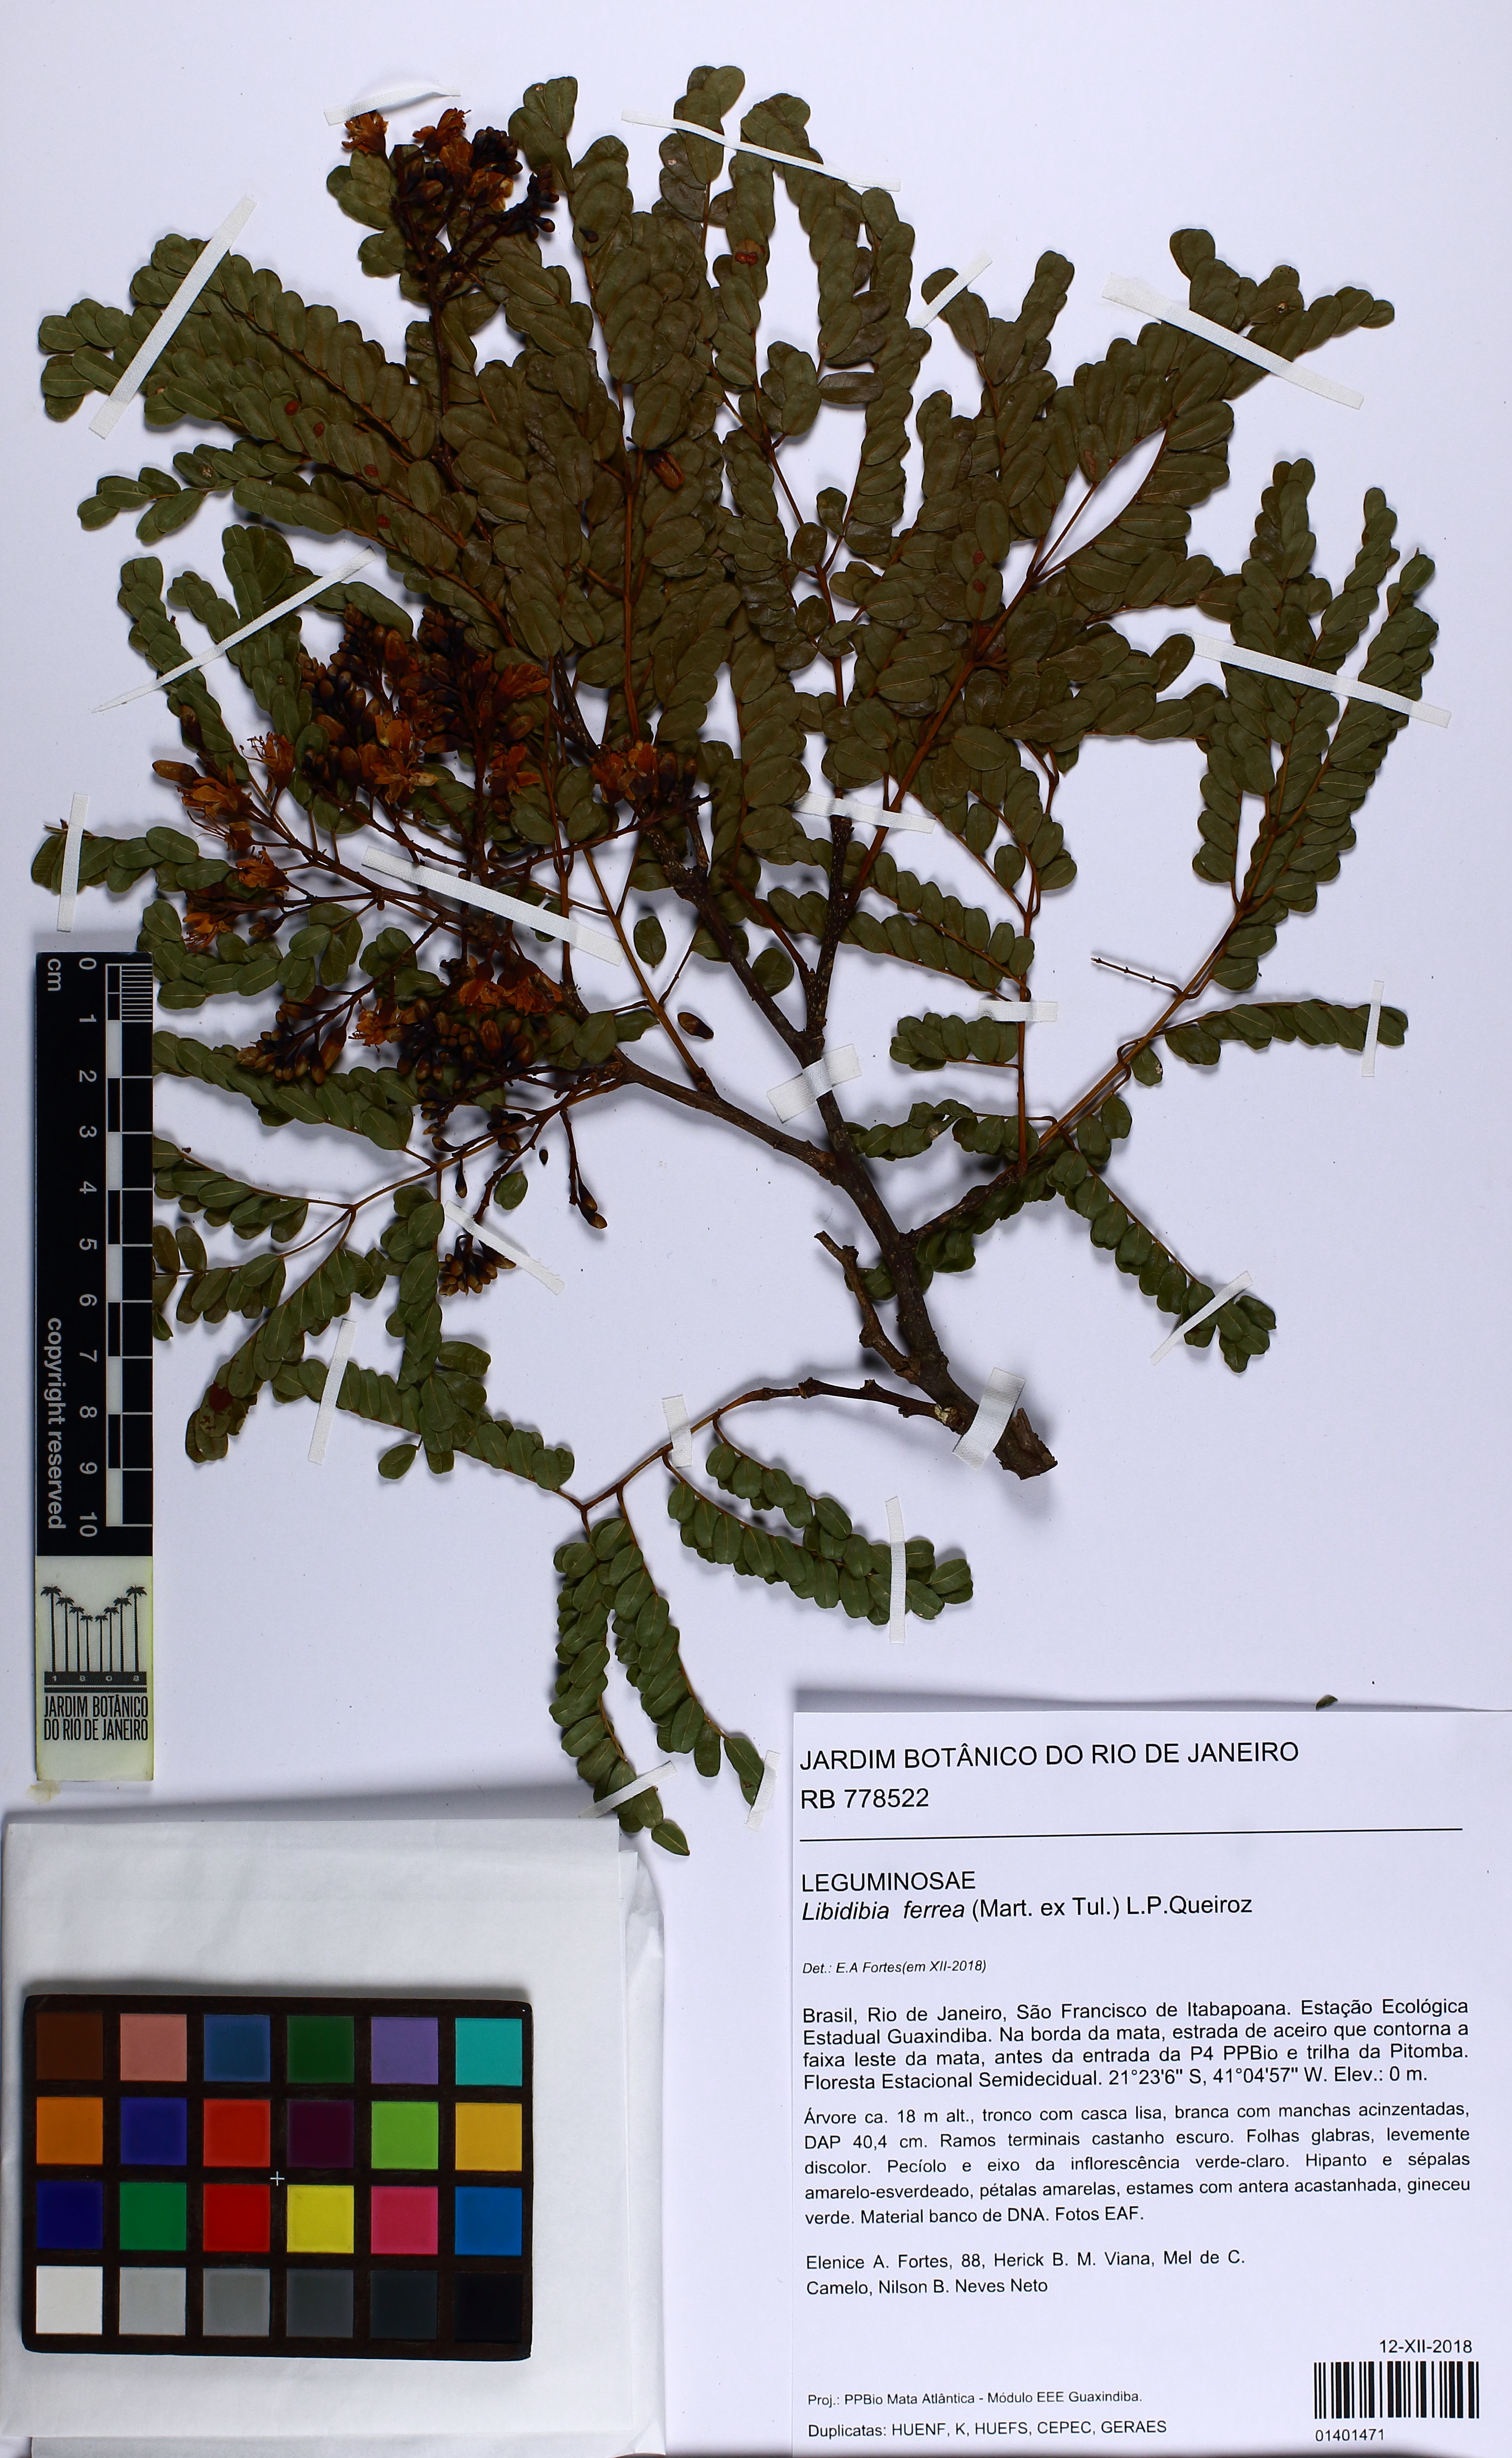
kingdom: Plantae
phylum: Tracheophyta
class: Magnoliopsida
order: Fabales
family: Fabaceae
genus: Libidibia
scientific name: Libidibia ferrea
